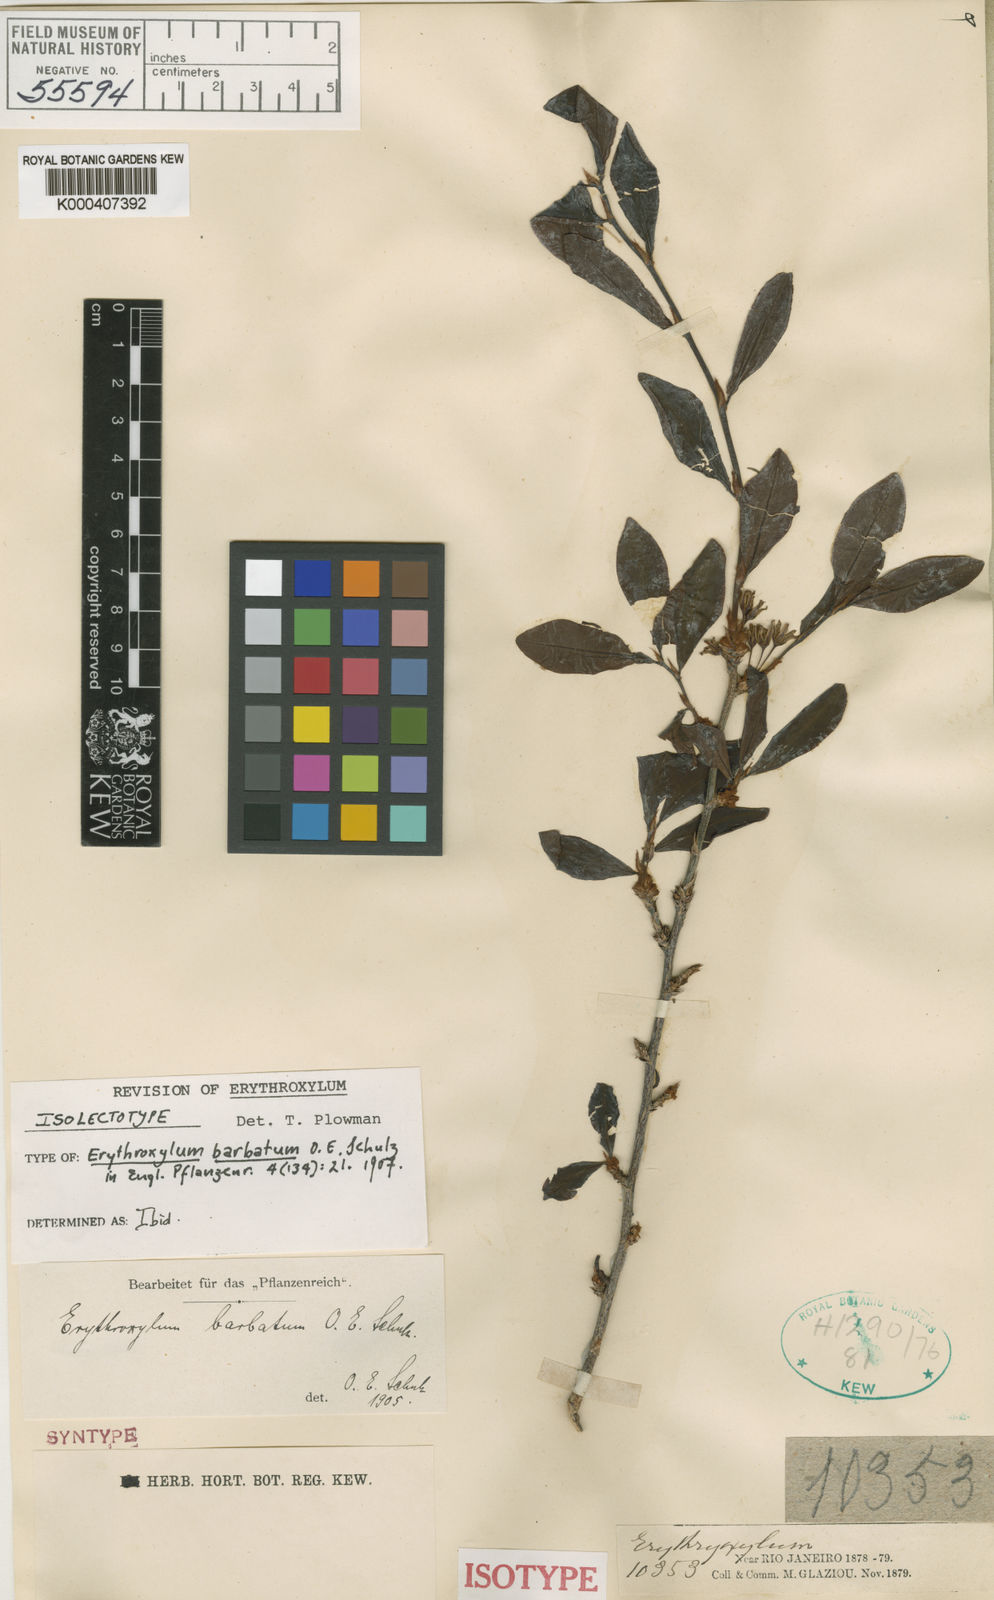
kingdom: Plantae
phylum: Tracheophyta
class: Magnoliopsida
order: Malpighiales
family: Erythroxylaceae
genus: Erythroxylum
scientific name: Erythroxylum
